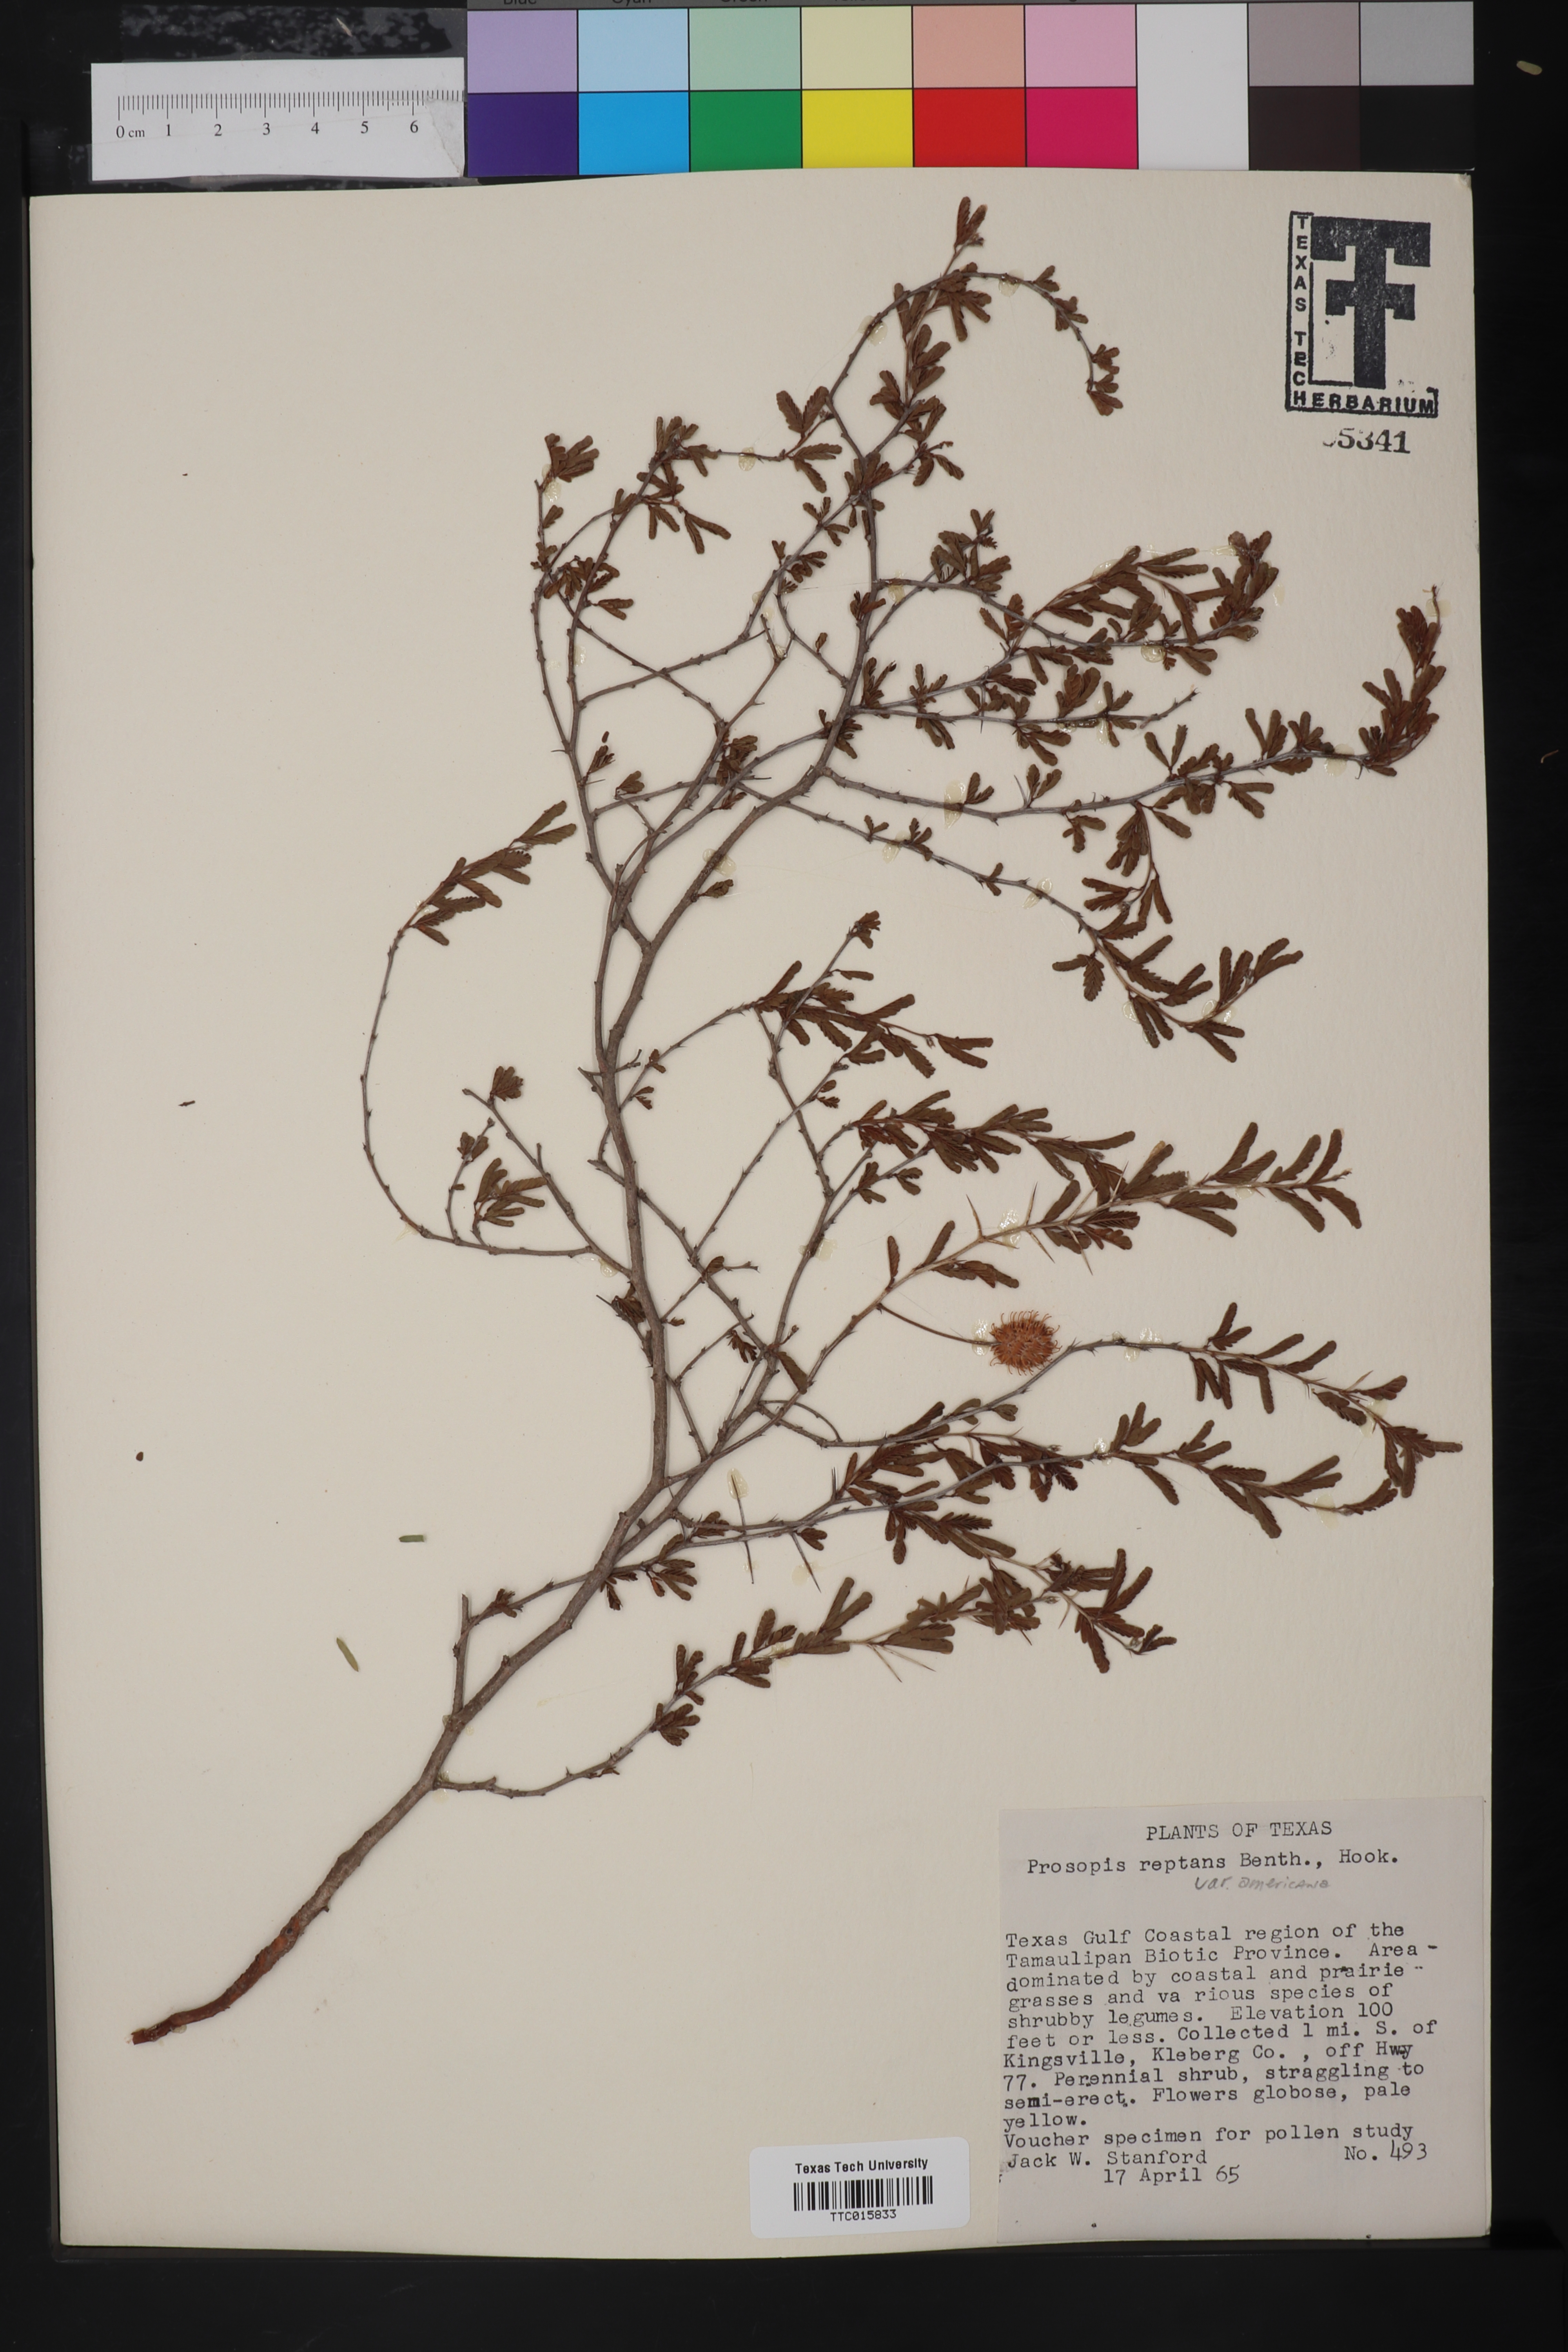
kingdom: Plantae
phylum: Tracheophyta
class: Magnoliopsida
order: Fabales
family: Fabaceae
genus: Prosopis
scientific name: Prosopis reptans
